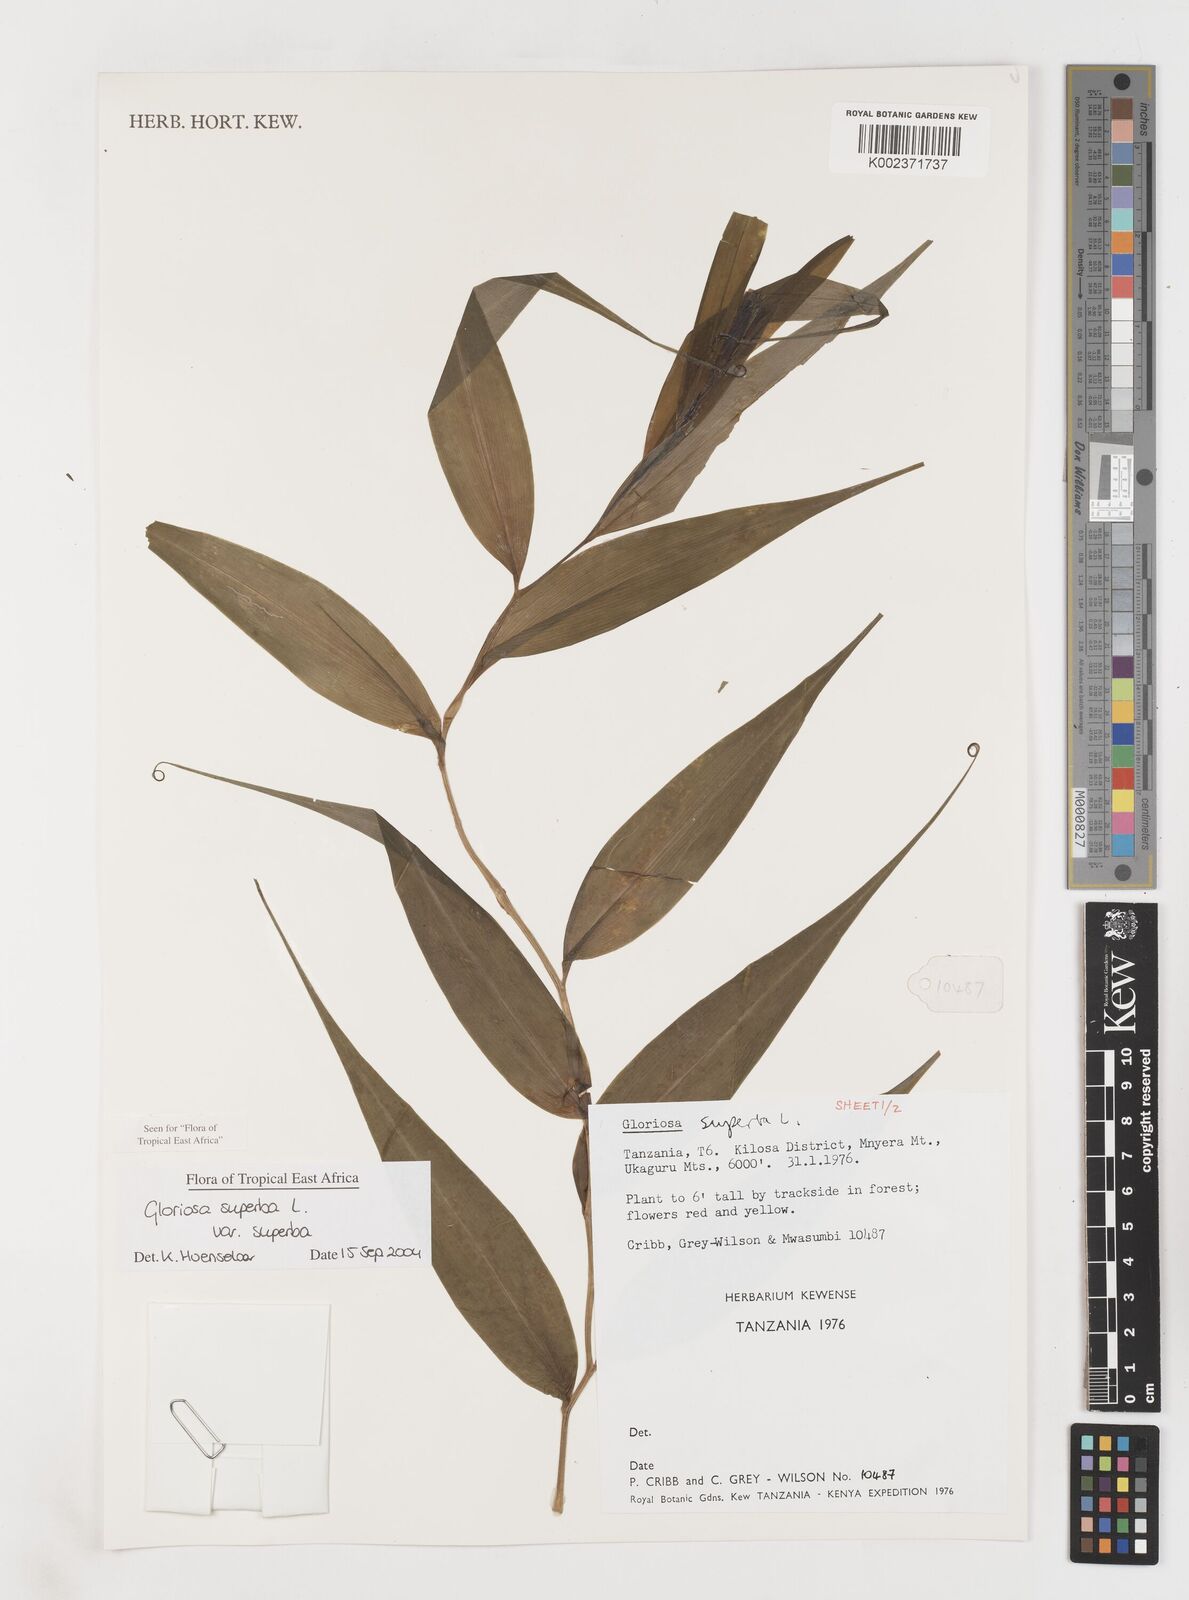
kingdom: Plantae
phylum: Tracheophyta
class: Liliopsida
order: Liliales
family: Colchicaceae
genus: Gloriosa
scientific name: Gloriosa simplex
